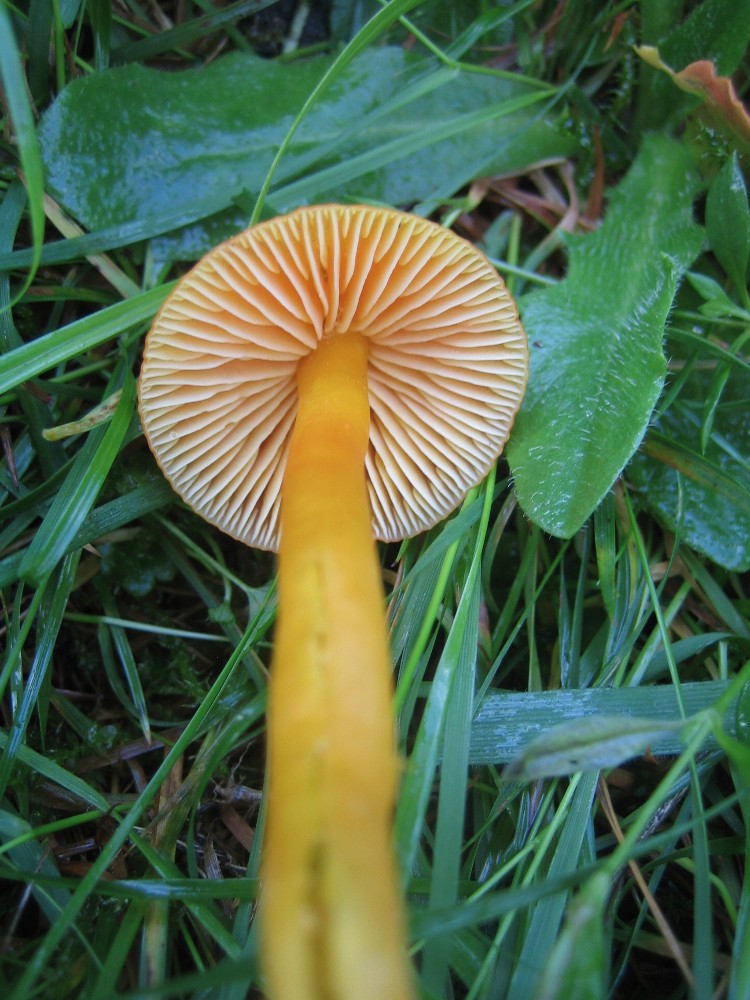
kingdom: Fungi
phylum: Basidiomycota
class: Agaricomycetes
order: Agaricales
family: Hygrophoraceae
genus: Hygrocybe
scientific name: Hygrocybe
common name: vokshat
